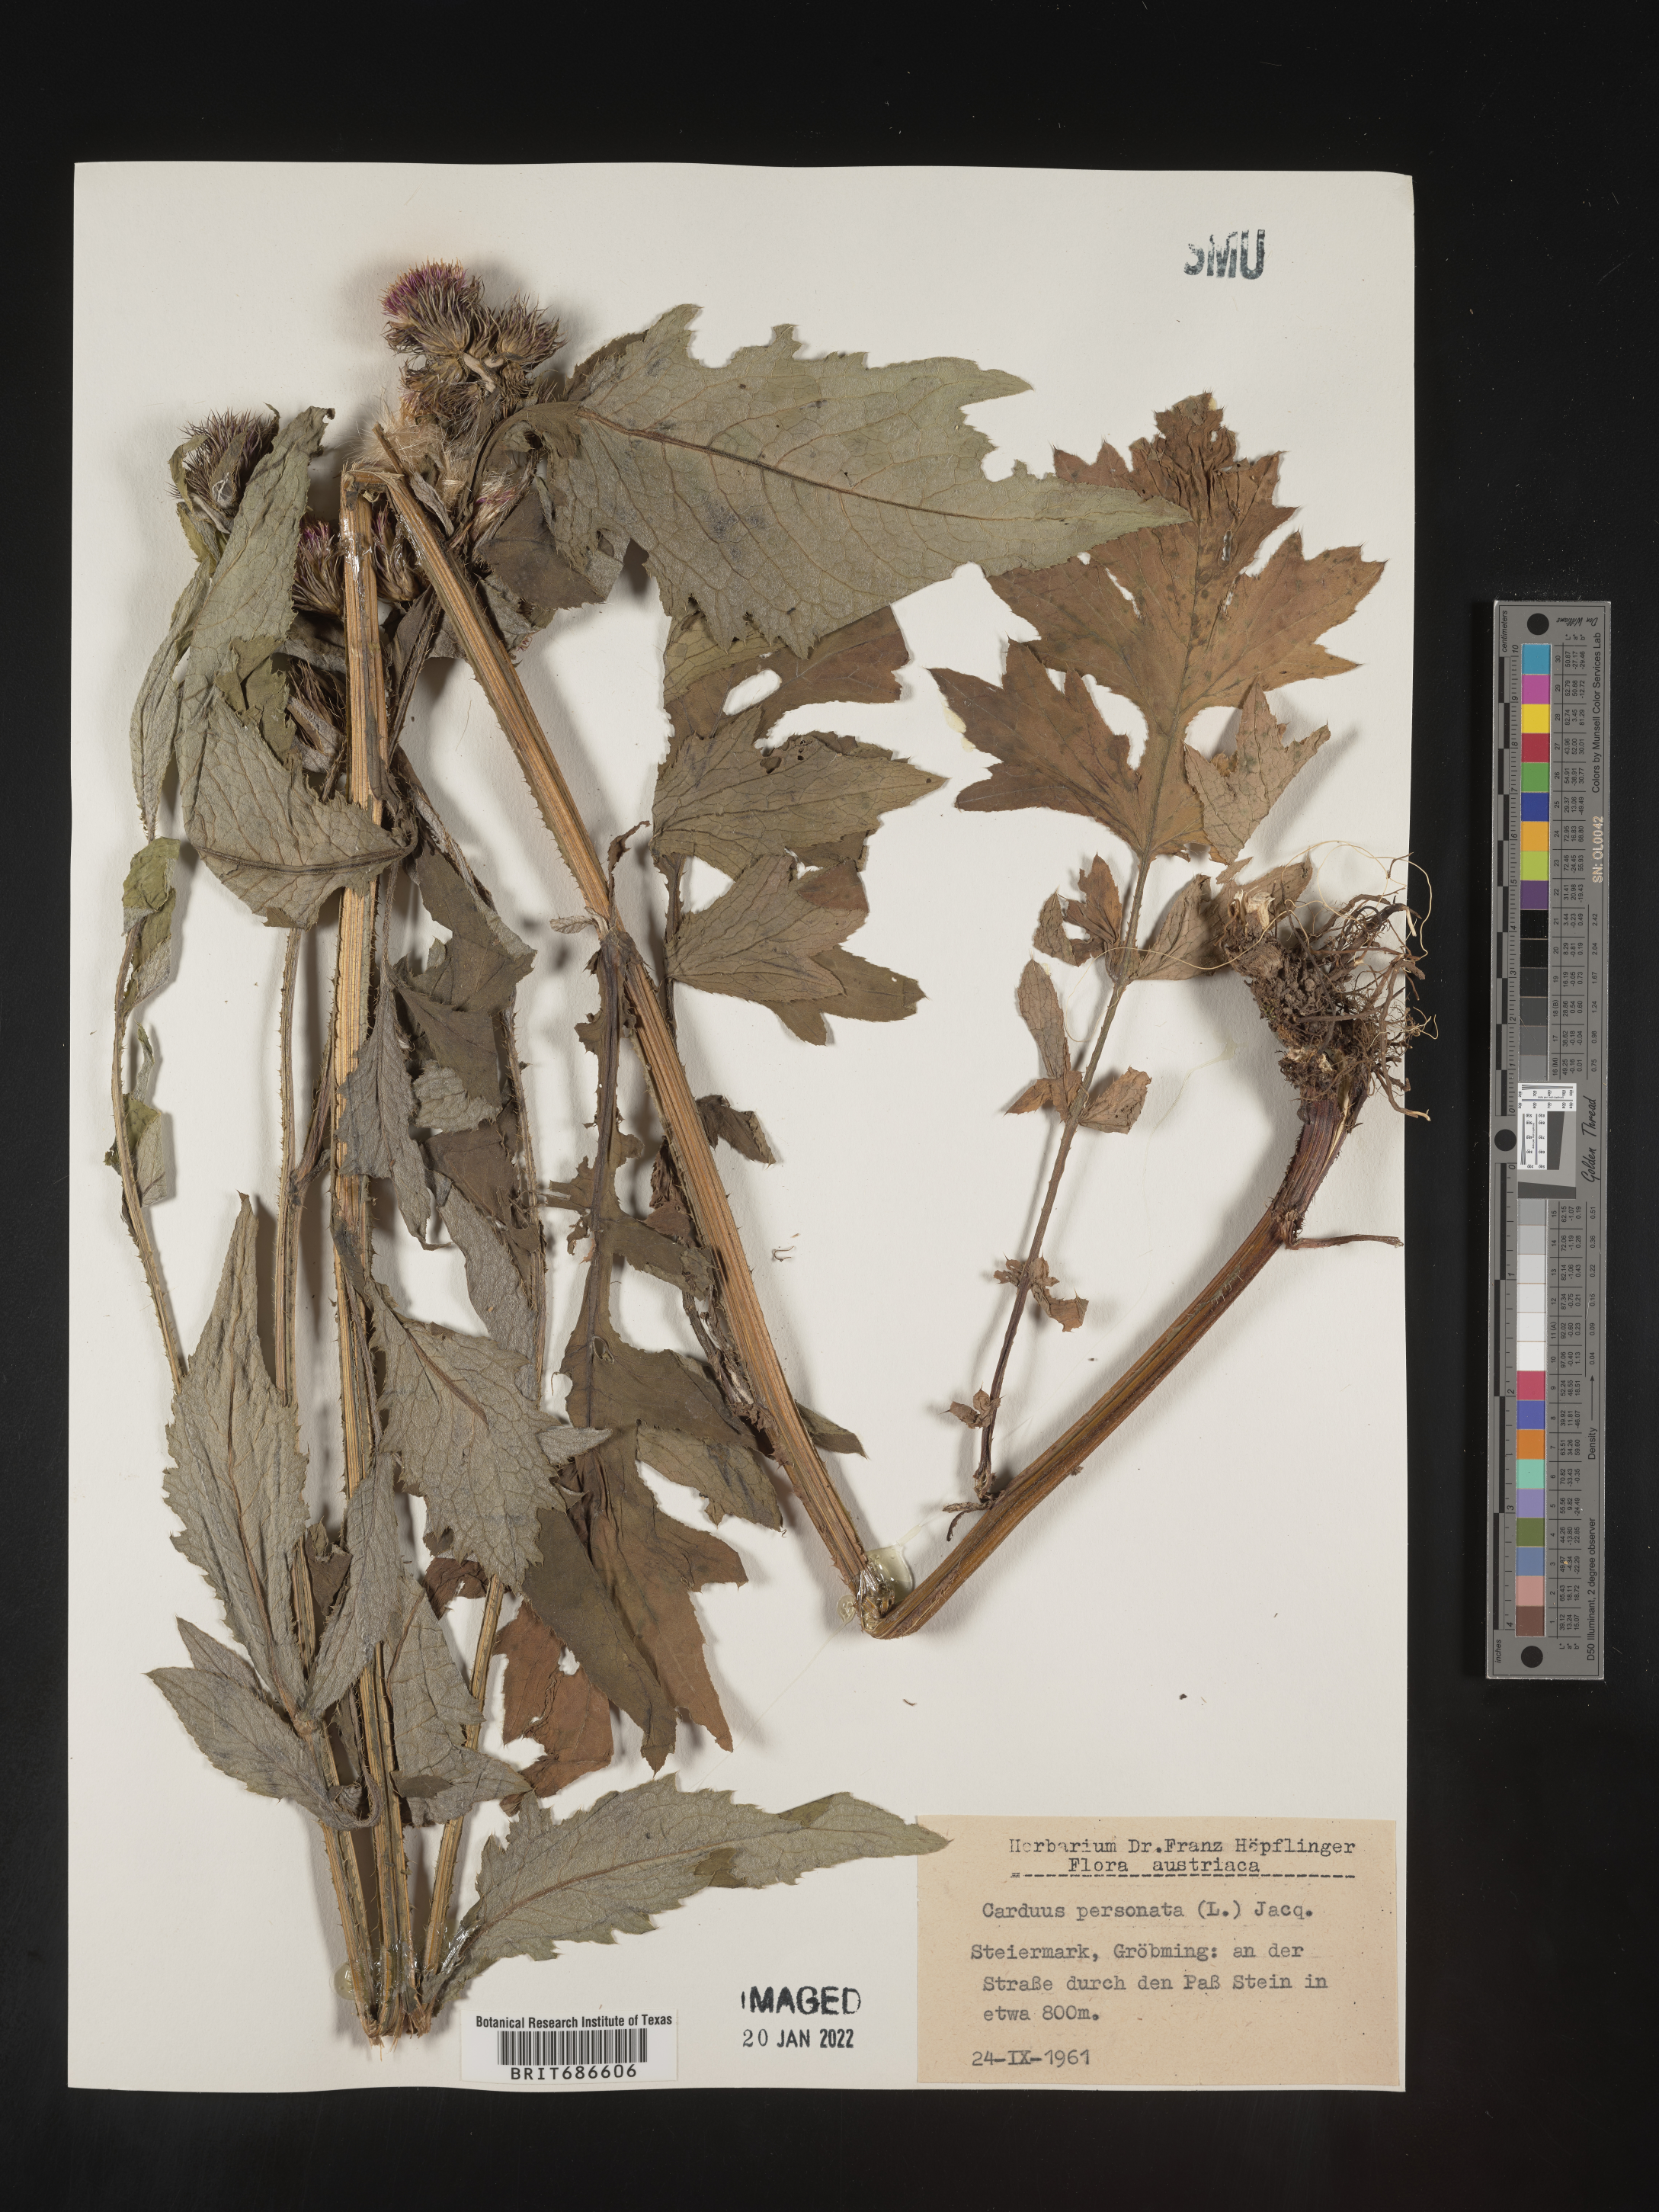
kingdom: Plantae
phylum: Tracheophyta
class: Magnoliopsida
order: Asterales
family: Asteraceae
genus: Carduus
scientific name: Carduus
